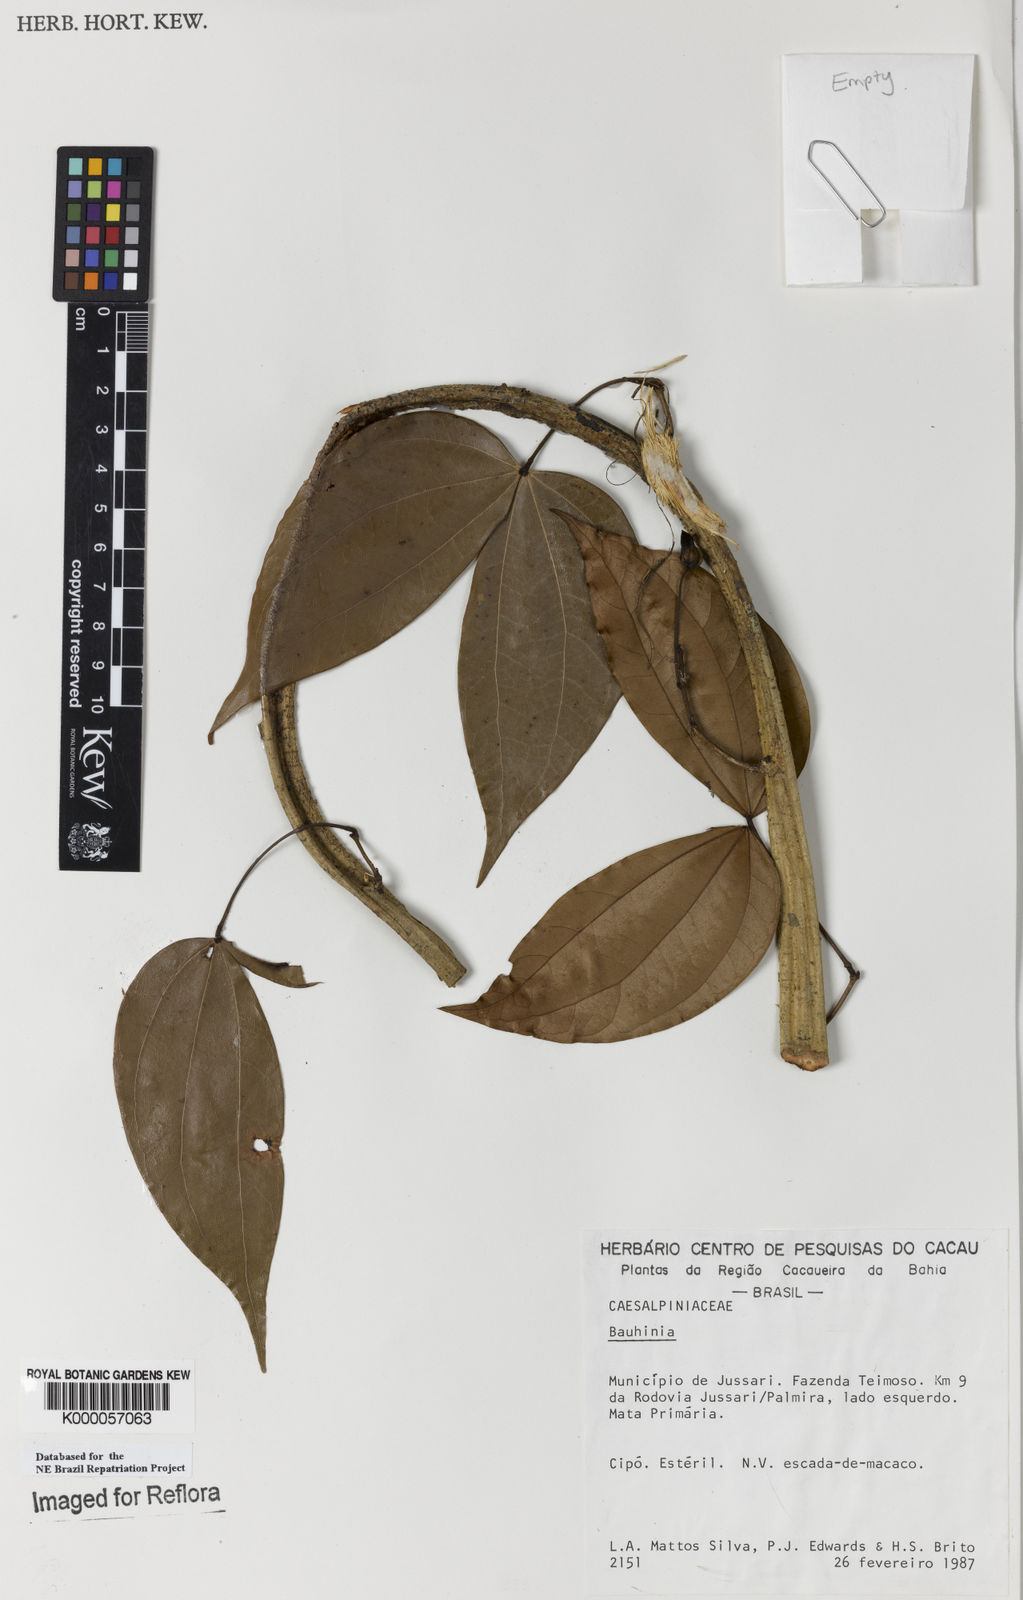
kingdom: Plantae
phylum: Tracheophyta
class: Magnoliopsida
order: Fabales
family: Fabaceae
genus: Schnella
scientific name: Schnella
